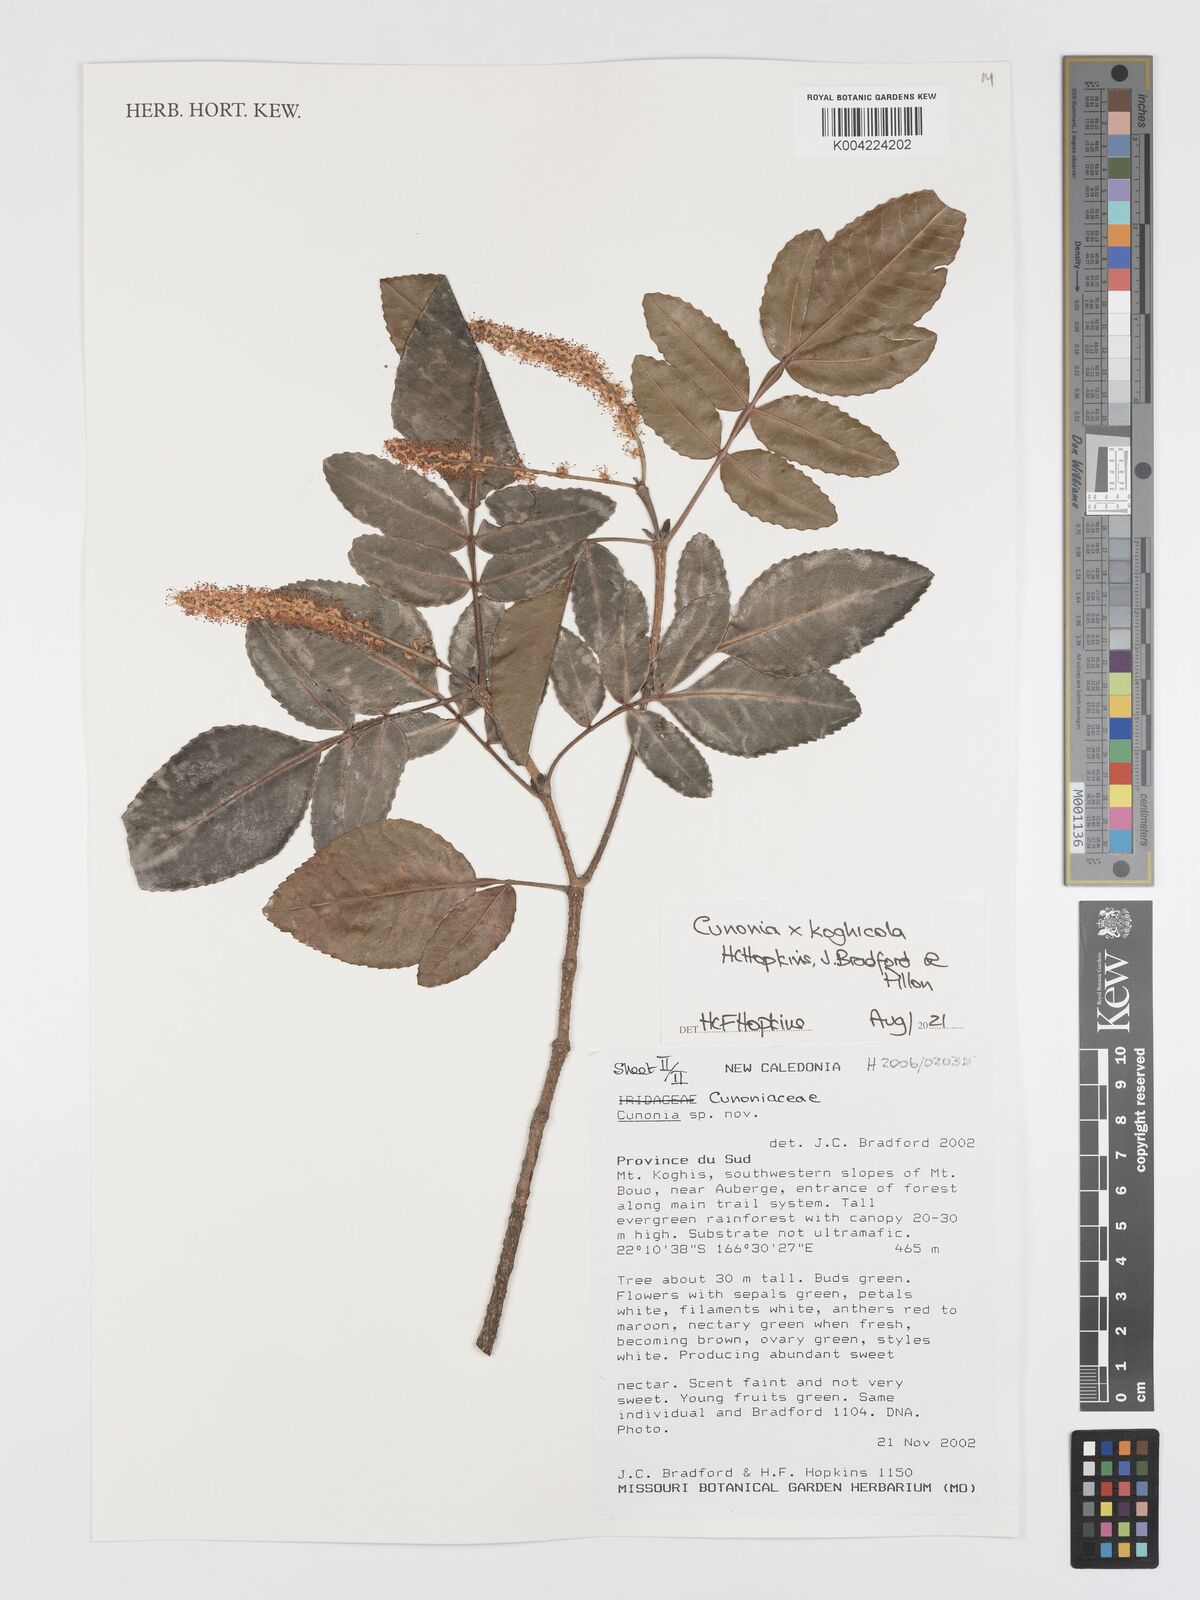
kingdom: Plantae
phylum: Tracheophyta
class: Magnoliopsida
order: Oxalidales
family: Cunoniaceae
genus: Cunonia
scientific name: Cunonia koghicola
